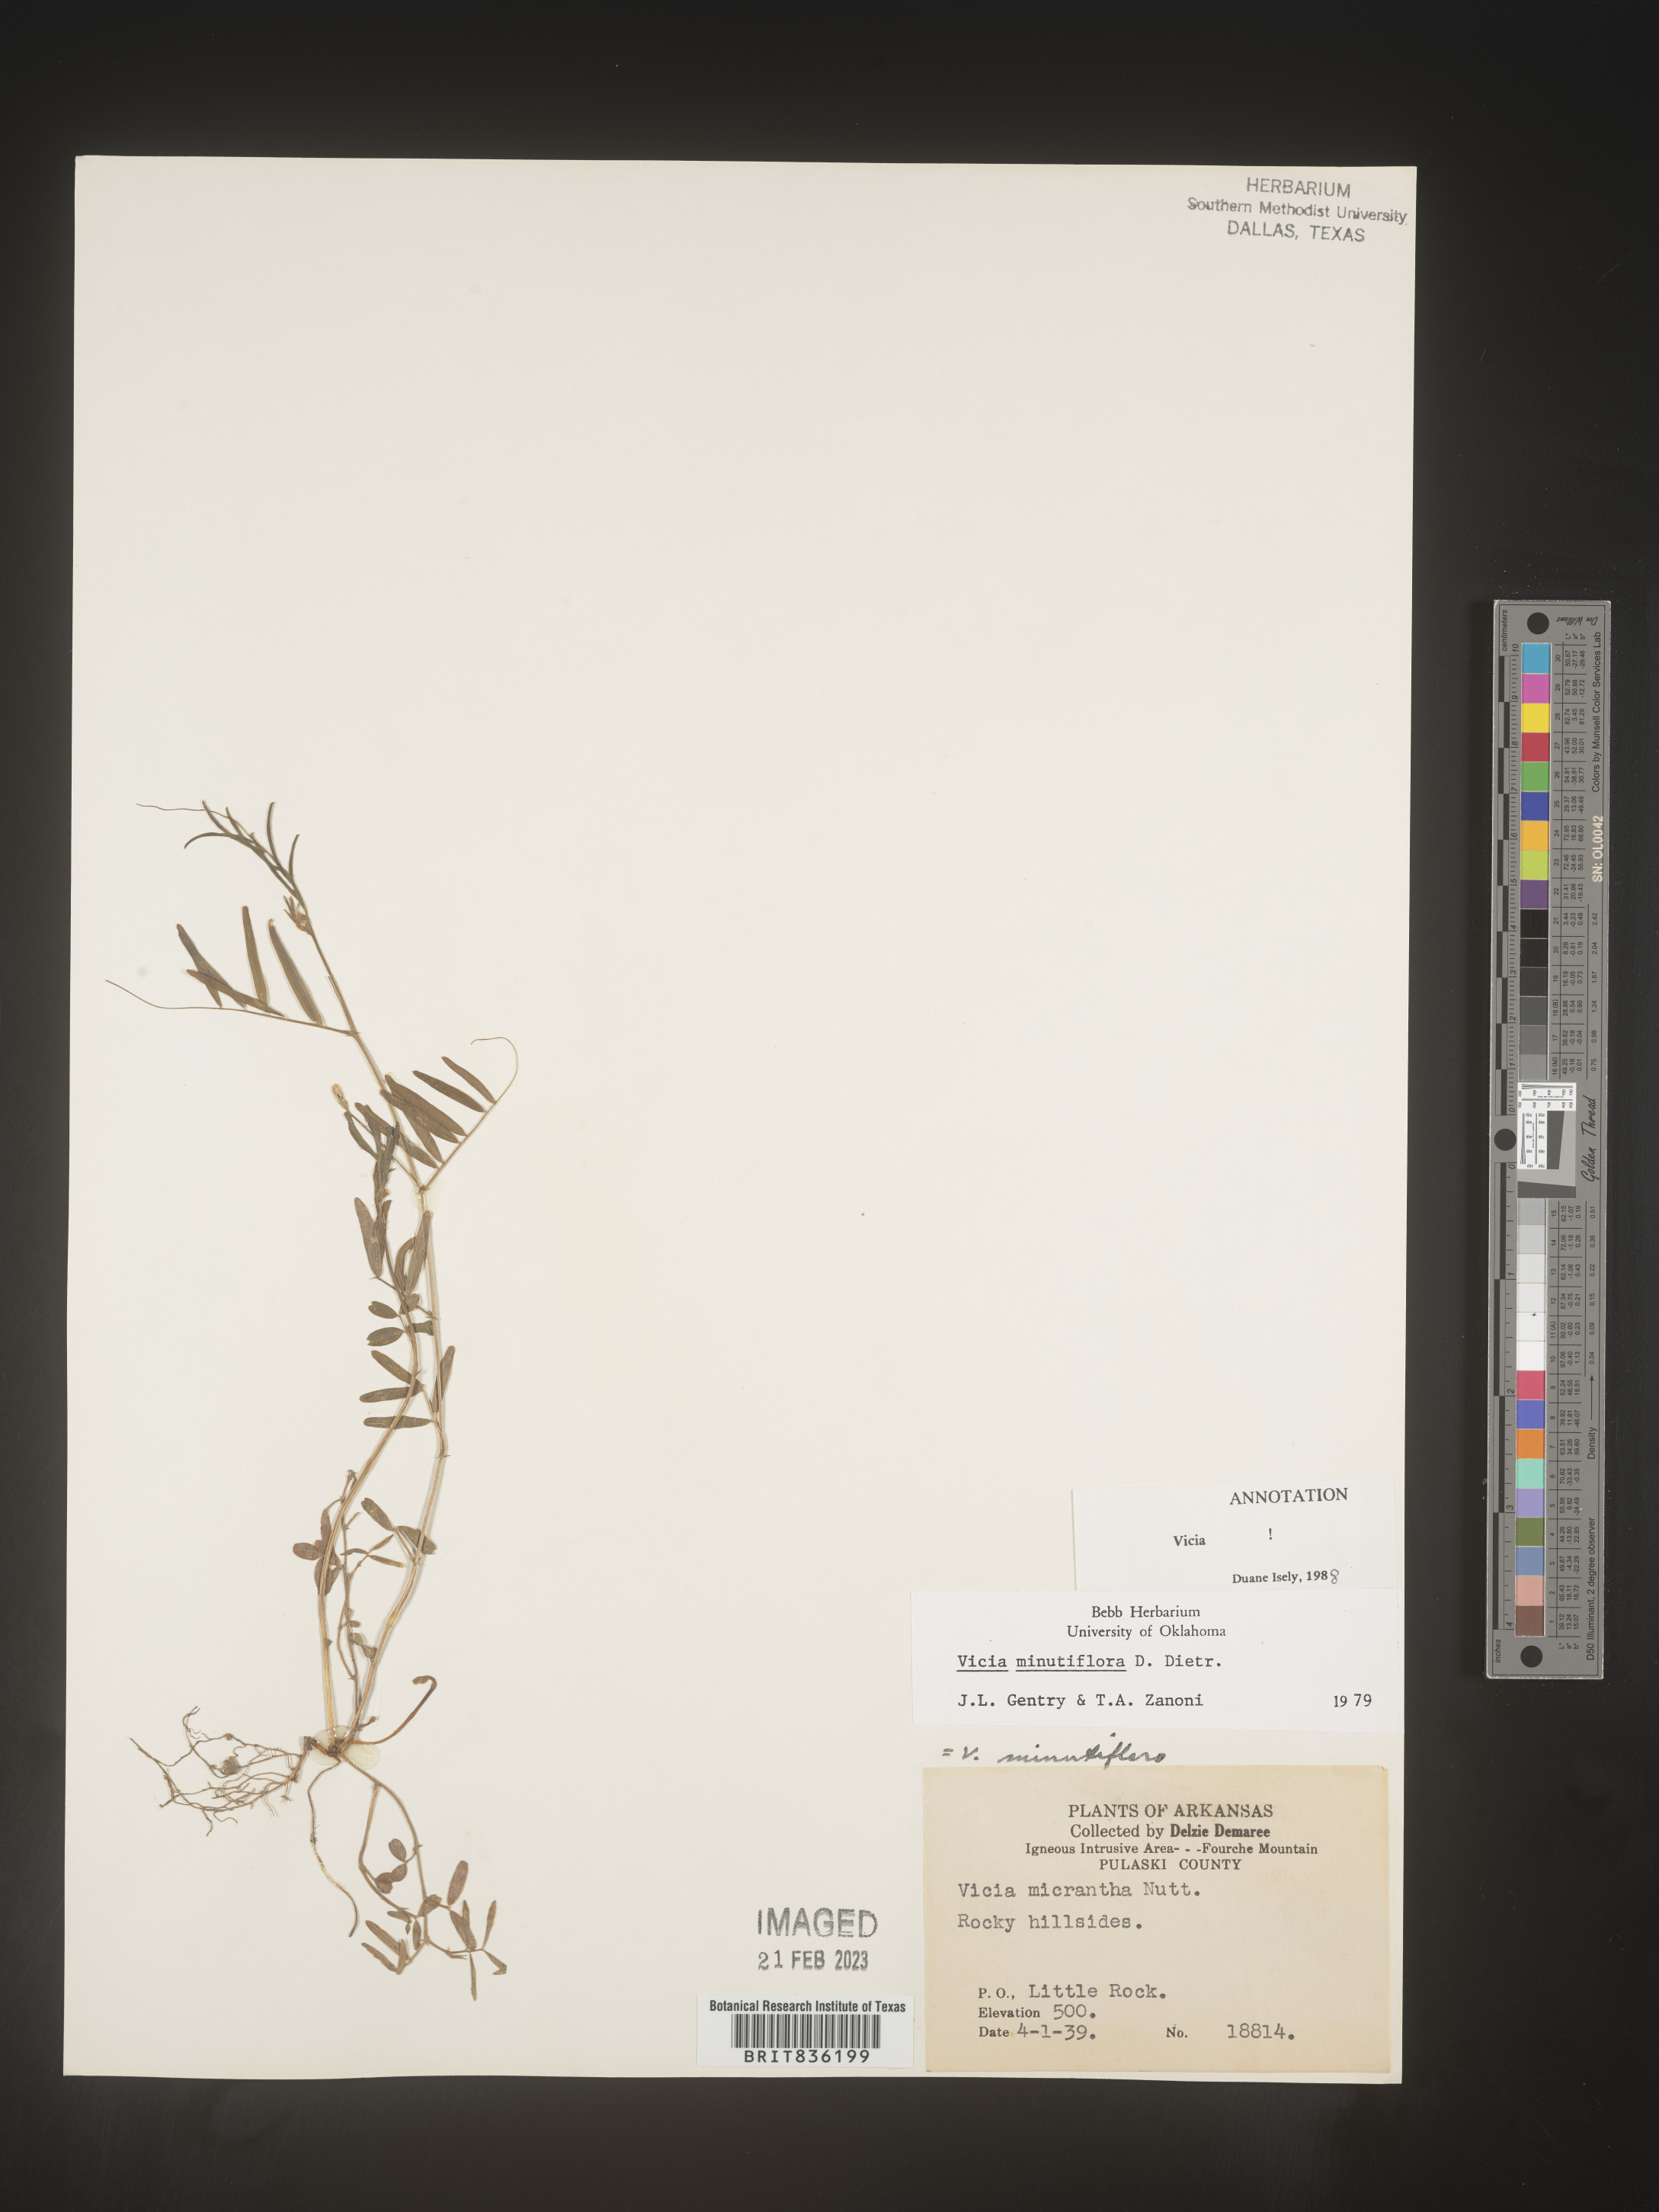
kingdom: Plantae
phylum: Tracheophyta
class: Magnoliopsida
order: Fabales
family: Fabaceae
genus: Vicia
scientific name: Vicia minutiflora
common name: Pygmy-flower vetch
